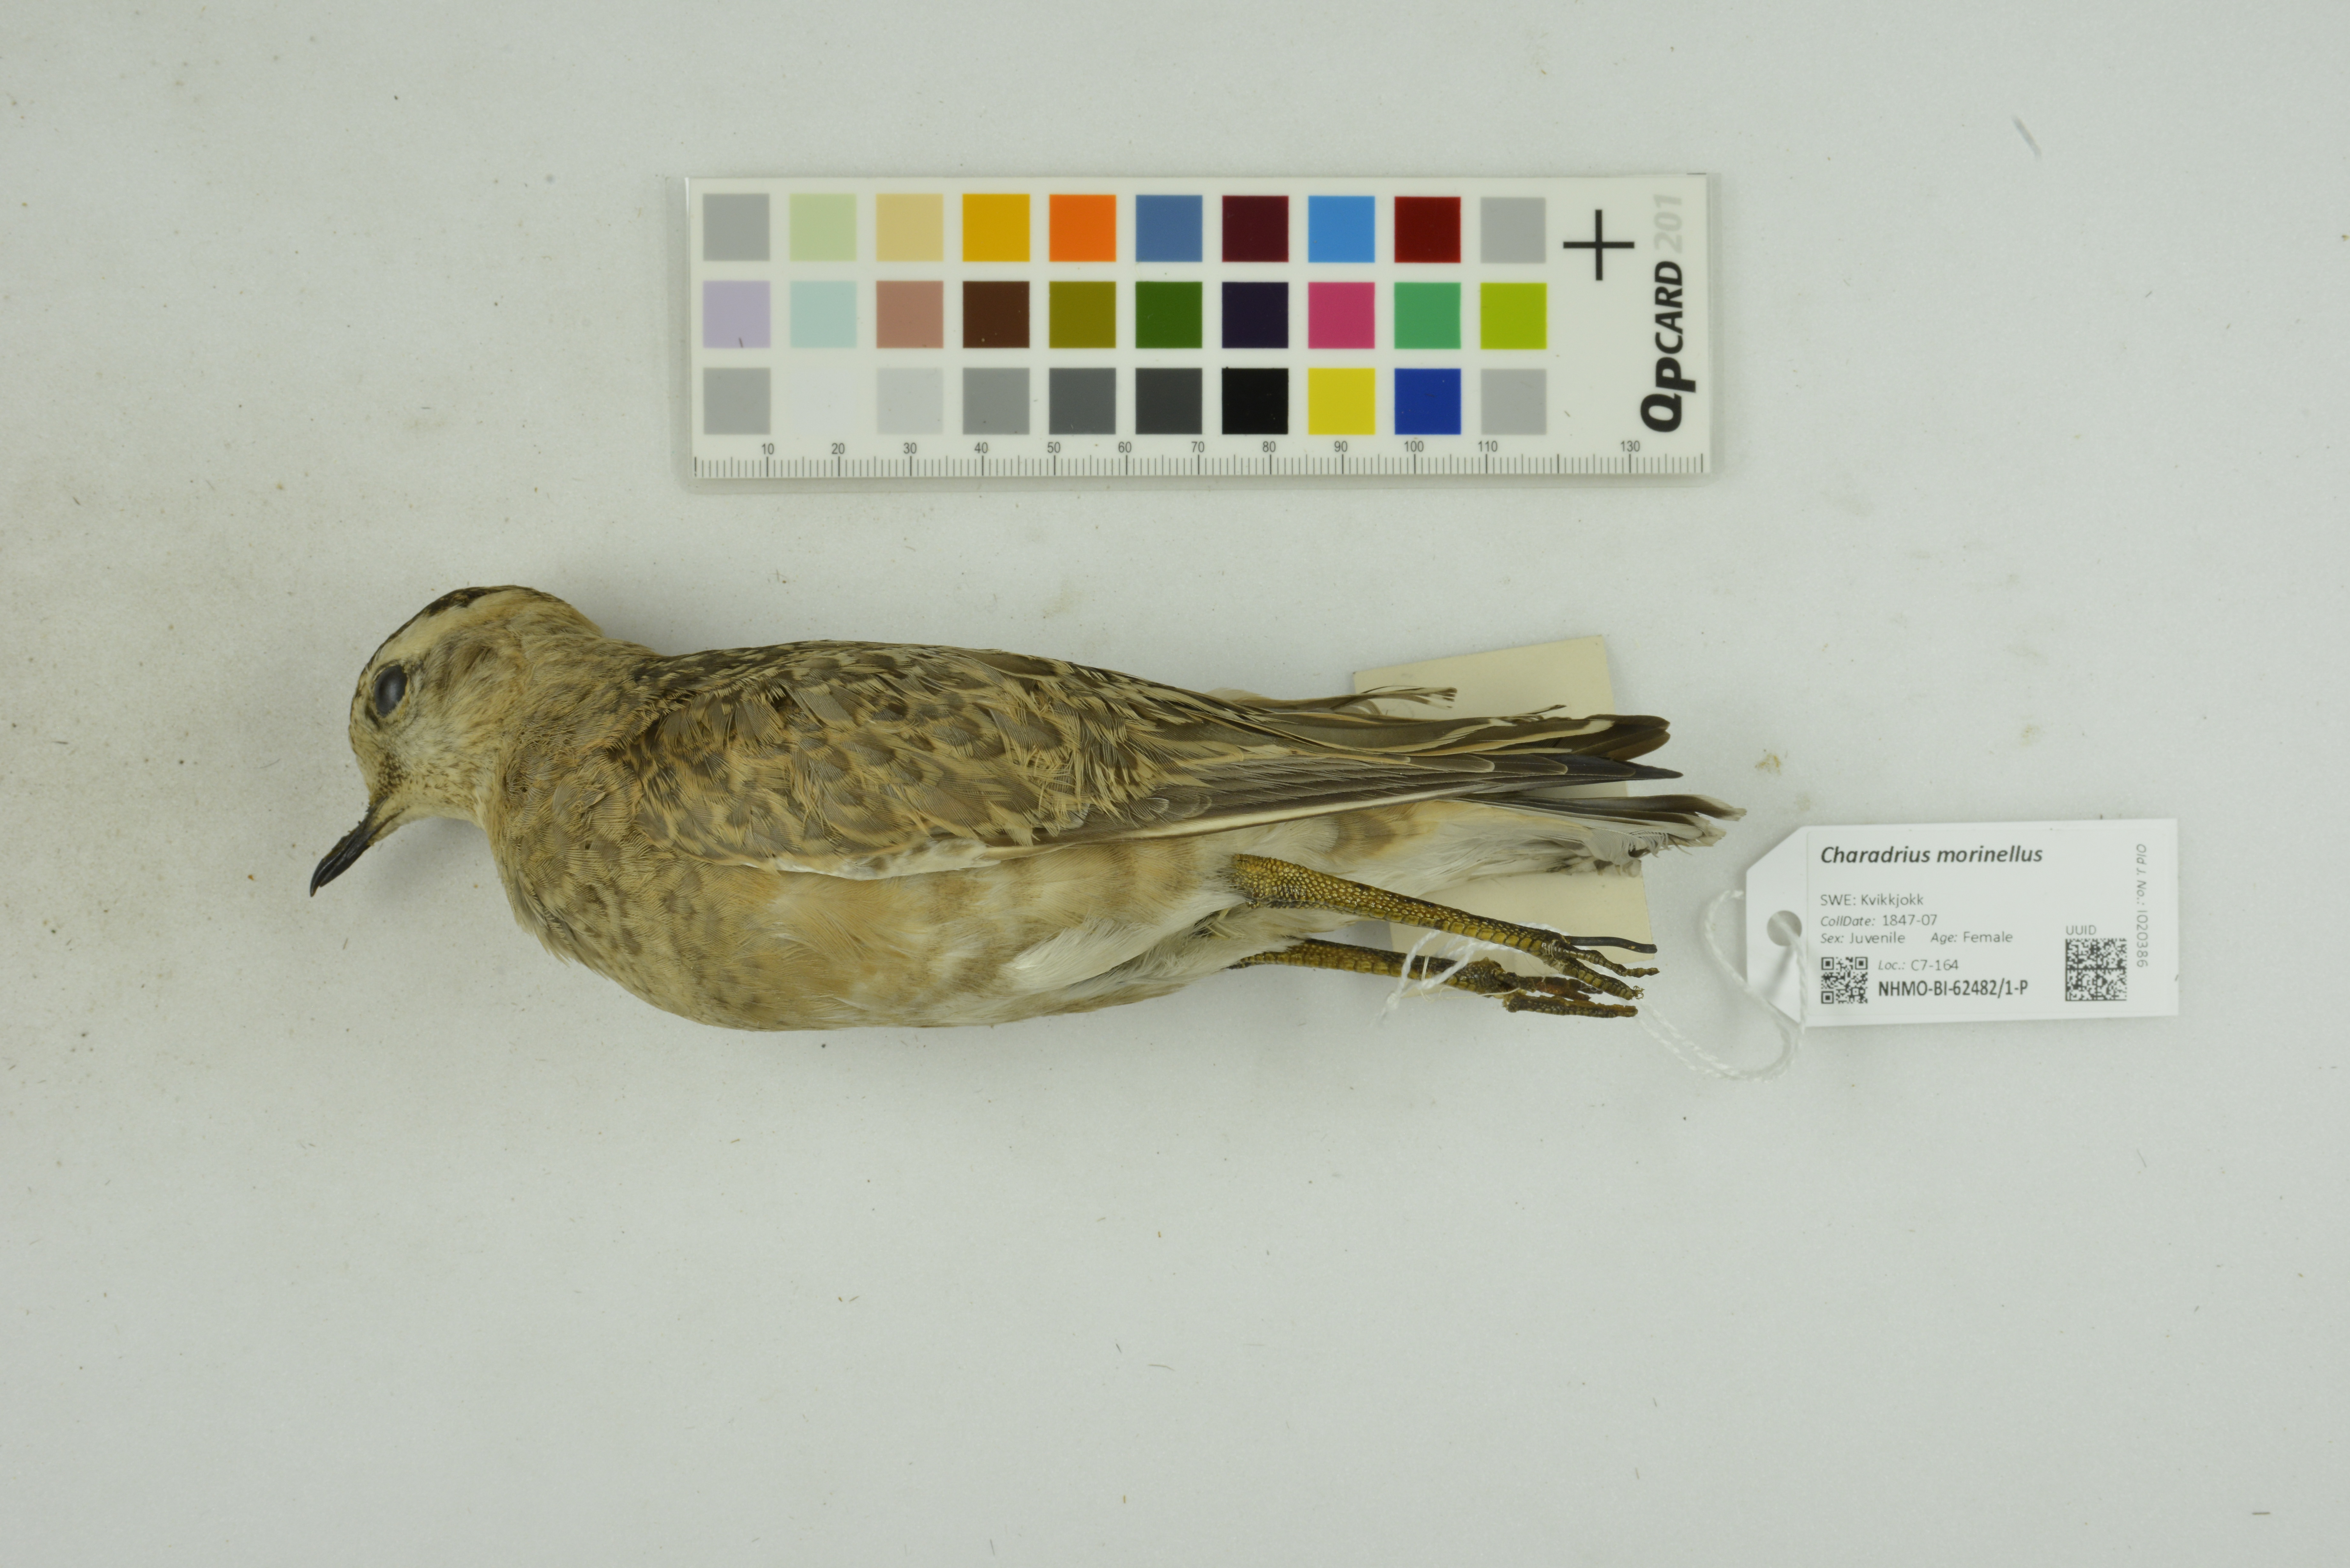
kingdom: Animalia
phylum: Chordata
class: Aves
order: Charadriiformes
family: Charadriidae
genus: Charadrius
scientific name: Charadrius morinellus
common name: Eurasian dotterel
